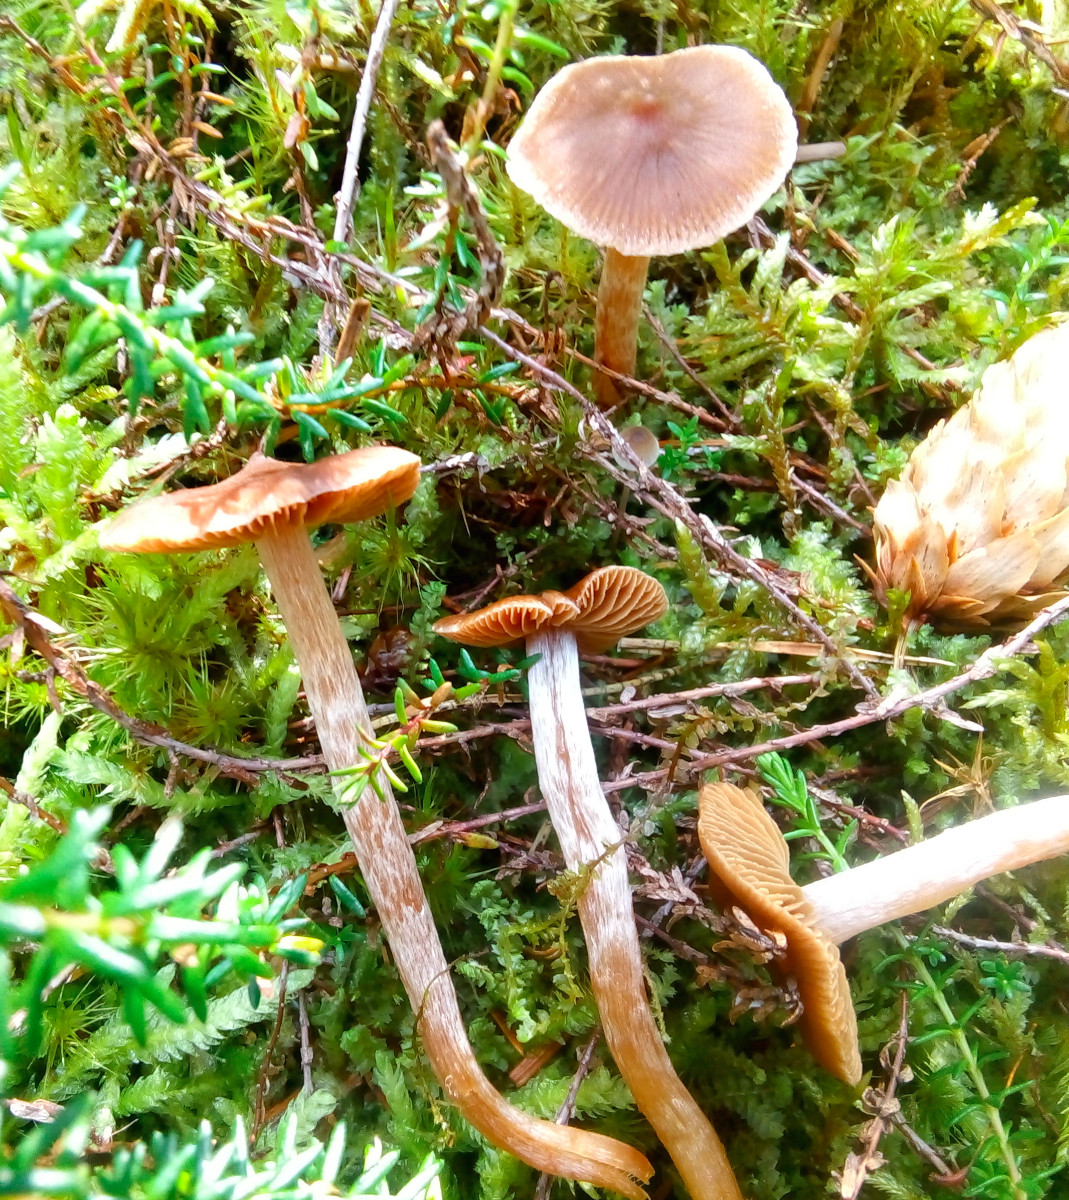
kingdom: Fungi
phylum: Basidiomycota
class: Agaricomycetes
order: Agaricales
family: Cortinariaceae
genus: Cortinarius
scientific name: Cortinarius
